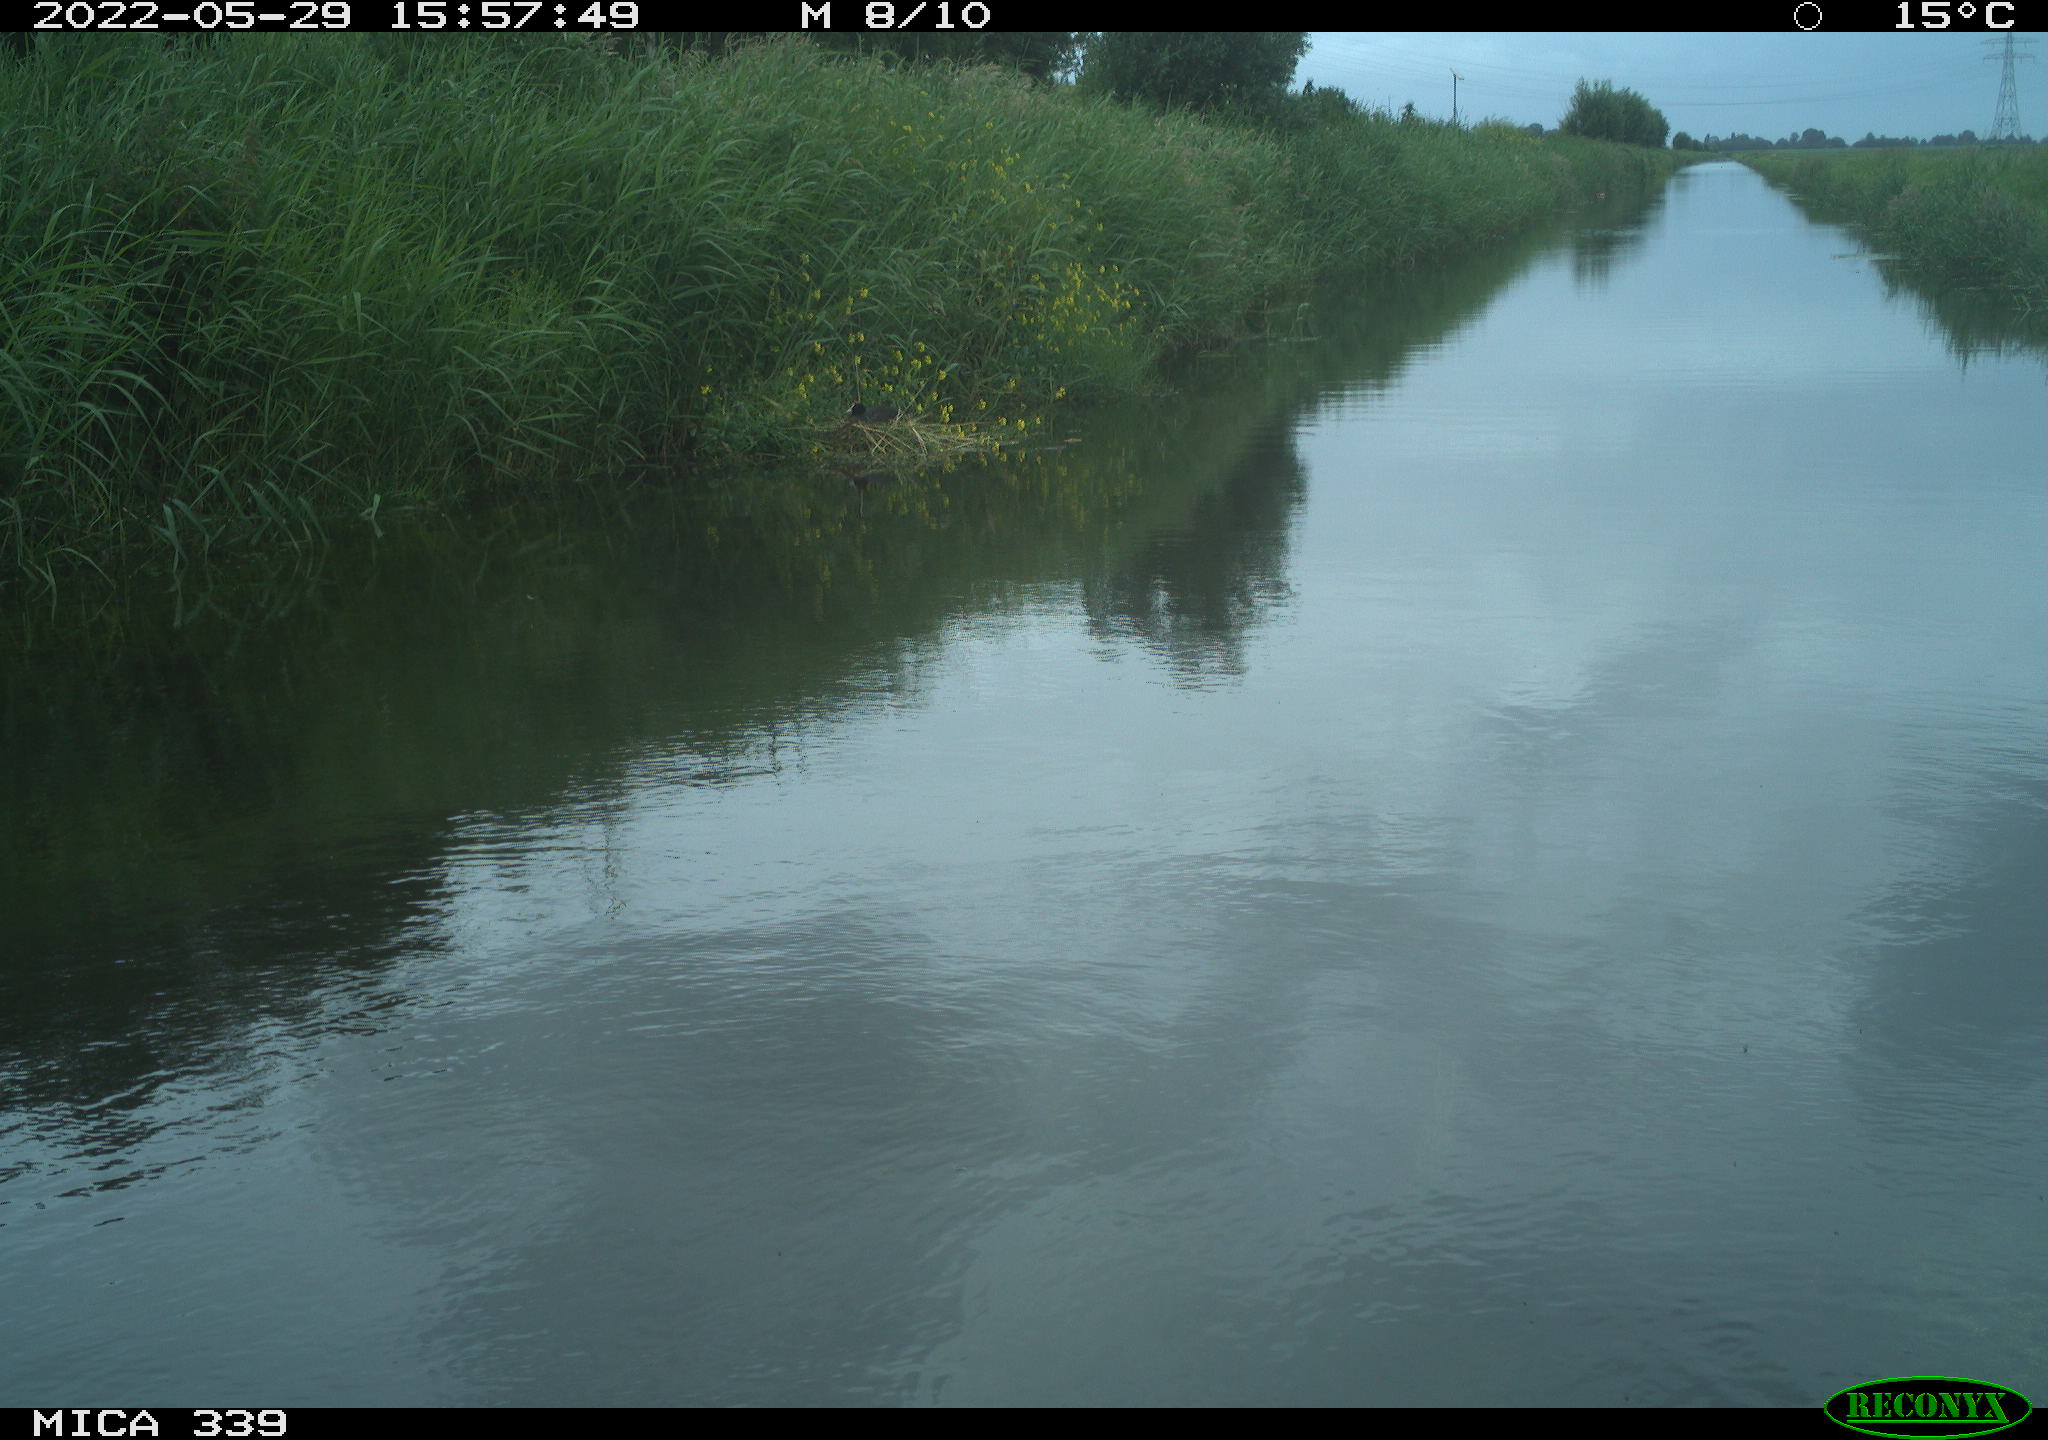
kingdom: Animalia
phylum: Chordata
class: Aves
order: Pelecaniformes
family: Ardeidae
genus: Ardea
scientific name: Ardea cinerea
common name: Grey heron
